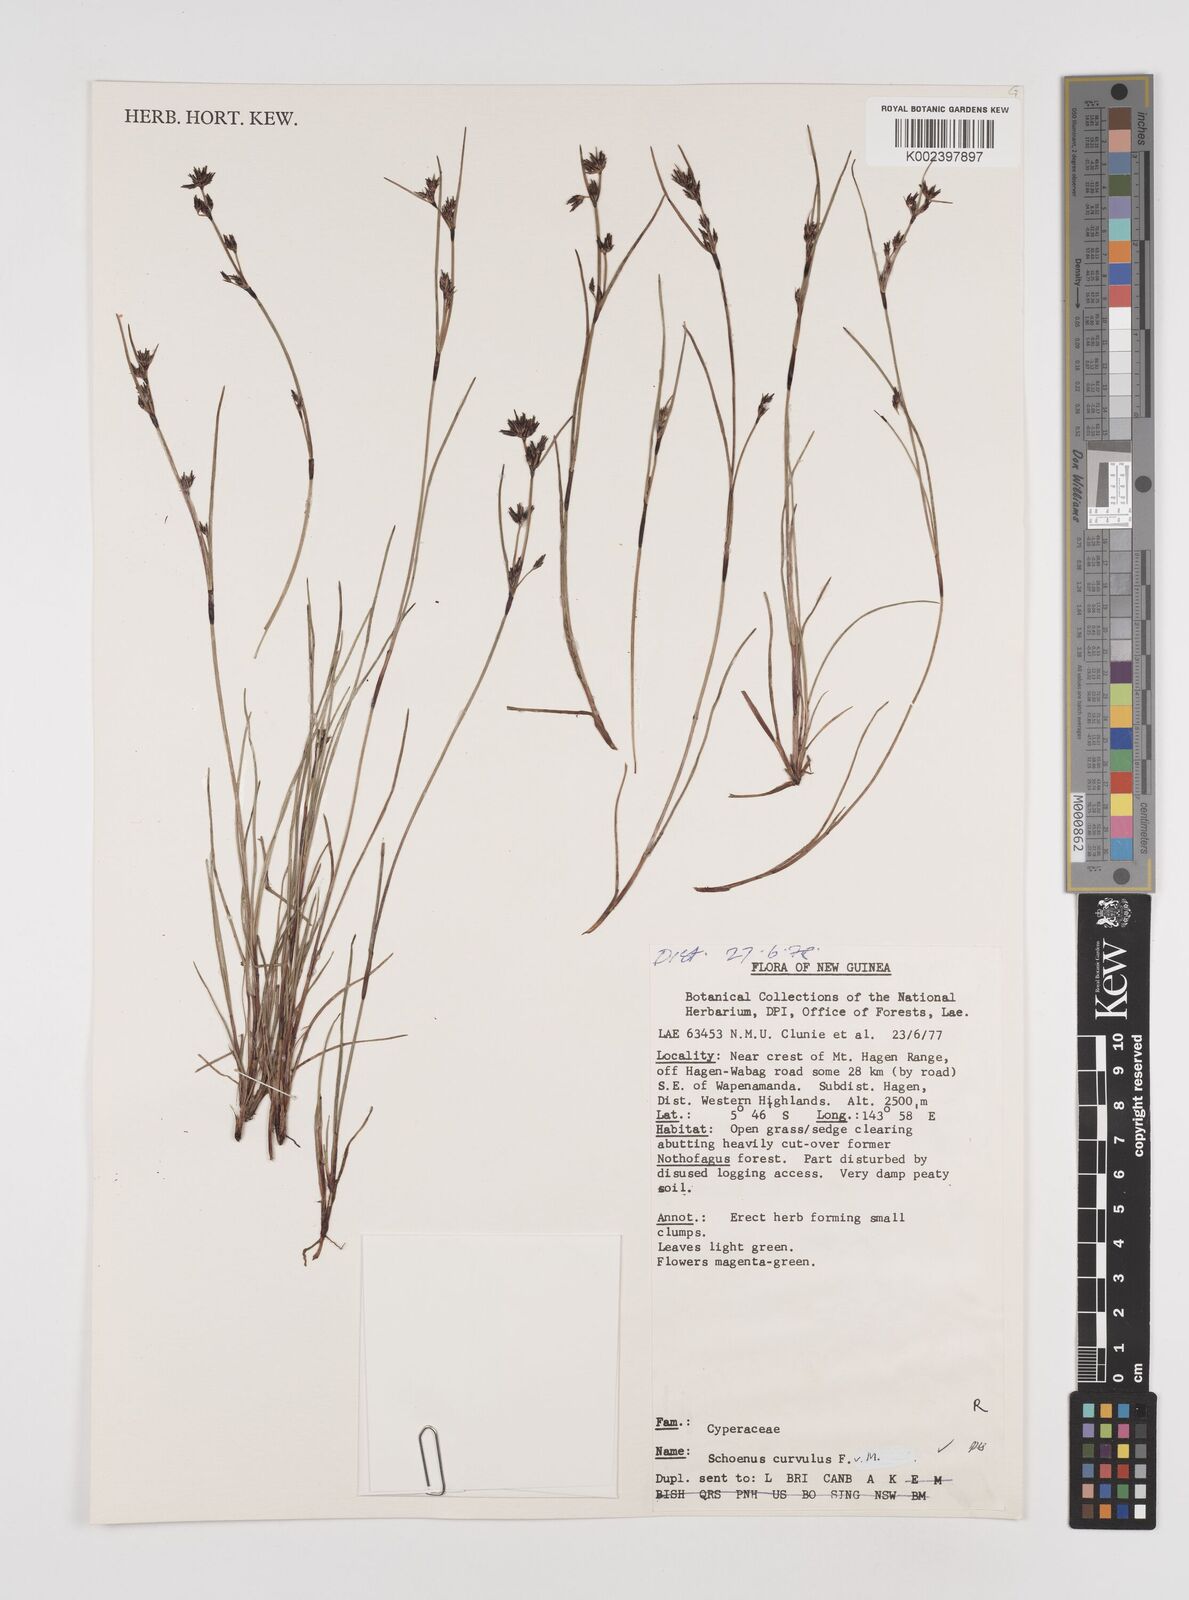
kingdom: Plantae
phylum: Tracheophyta
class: Liliopsida
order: Poales
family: Cyperaceae
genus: Schoenus
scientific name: Schoenus curvulus
